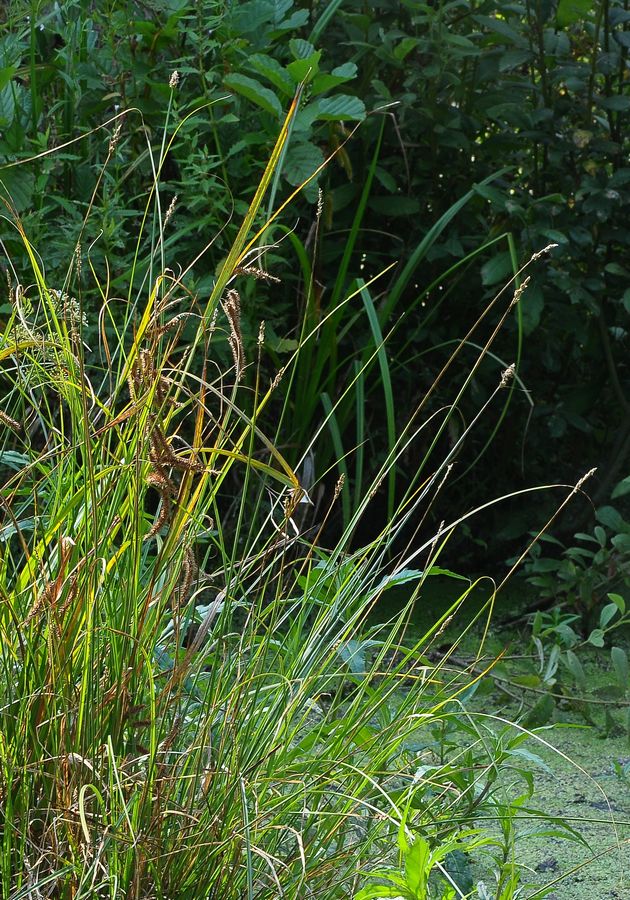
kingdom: Plantae
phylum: Tracheophyta
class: Liliopsida
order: Poales
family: Cyperaceae
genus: Carex
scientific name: Carex diandra
